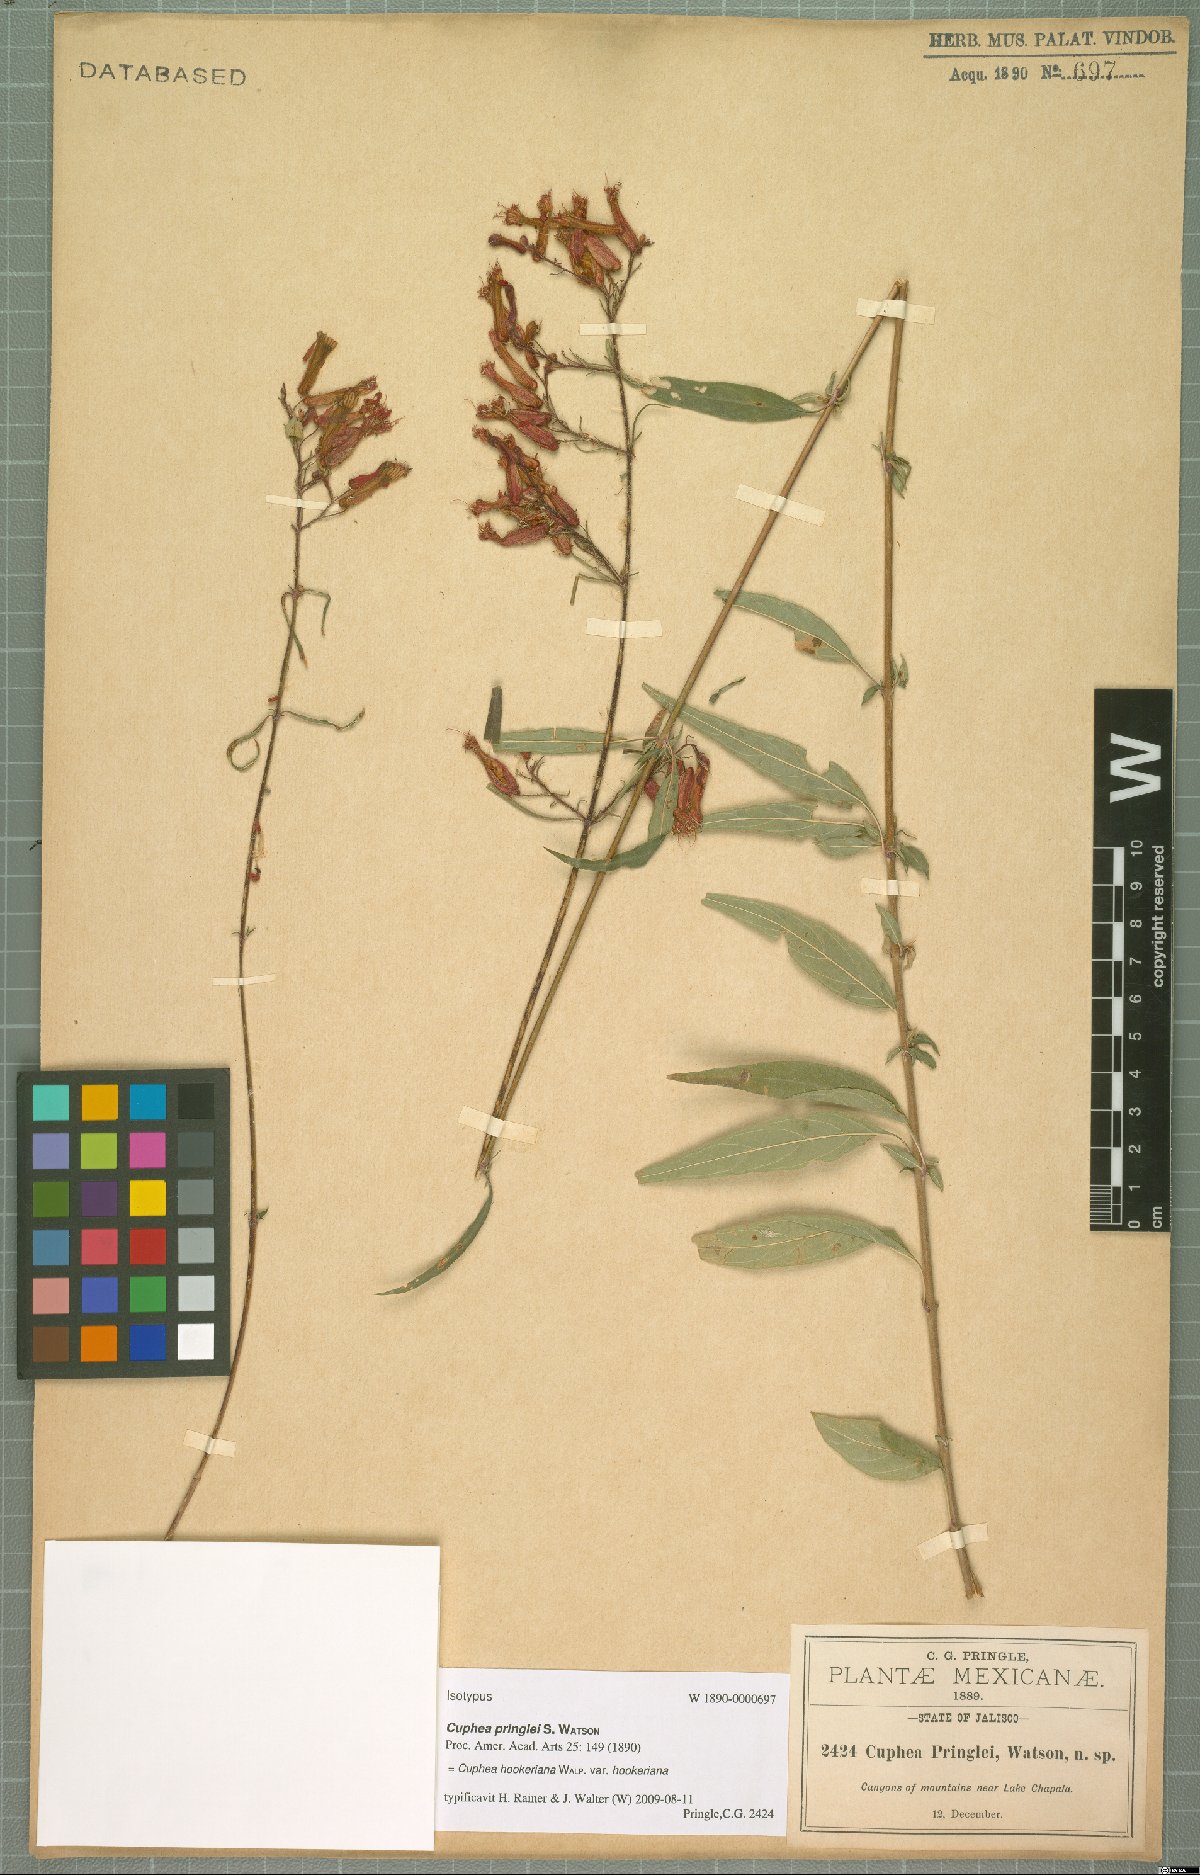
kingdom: Plantae
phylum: Tracheophyta
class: Magnoliopsida
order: Myrtales
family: Lythraceae
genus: Cuphea
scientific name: Cuphea hookeriana
